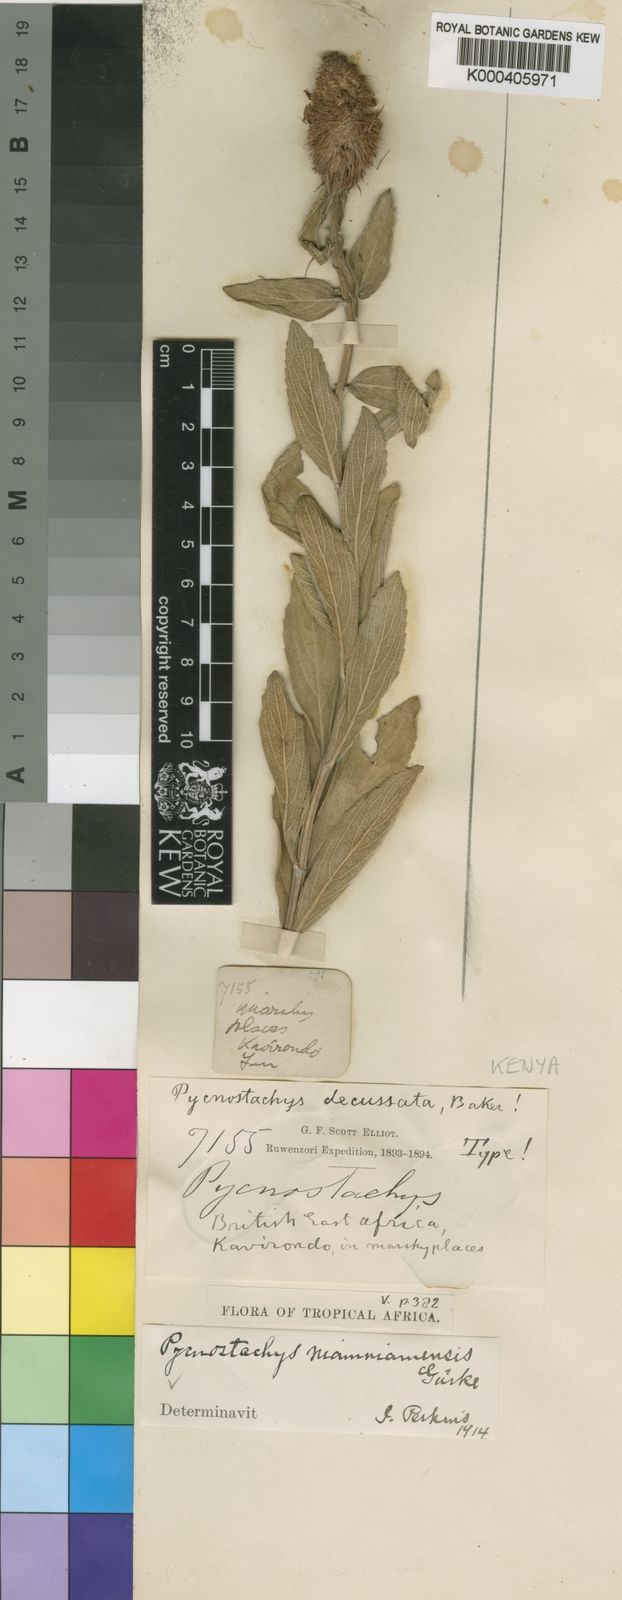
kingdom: Plantae
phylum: Tracheophyta
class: Magnoliopsida
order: Lamiales
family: Lamiaceae
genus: Coleus
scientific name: Coleus
